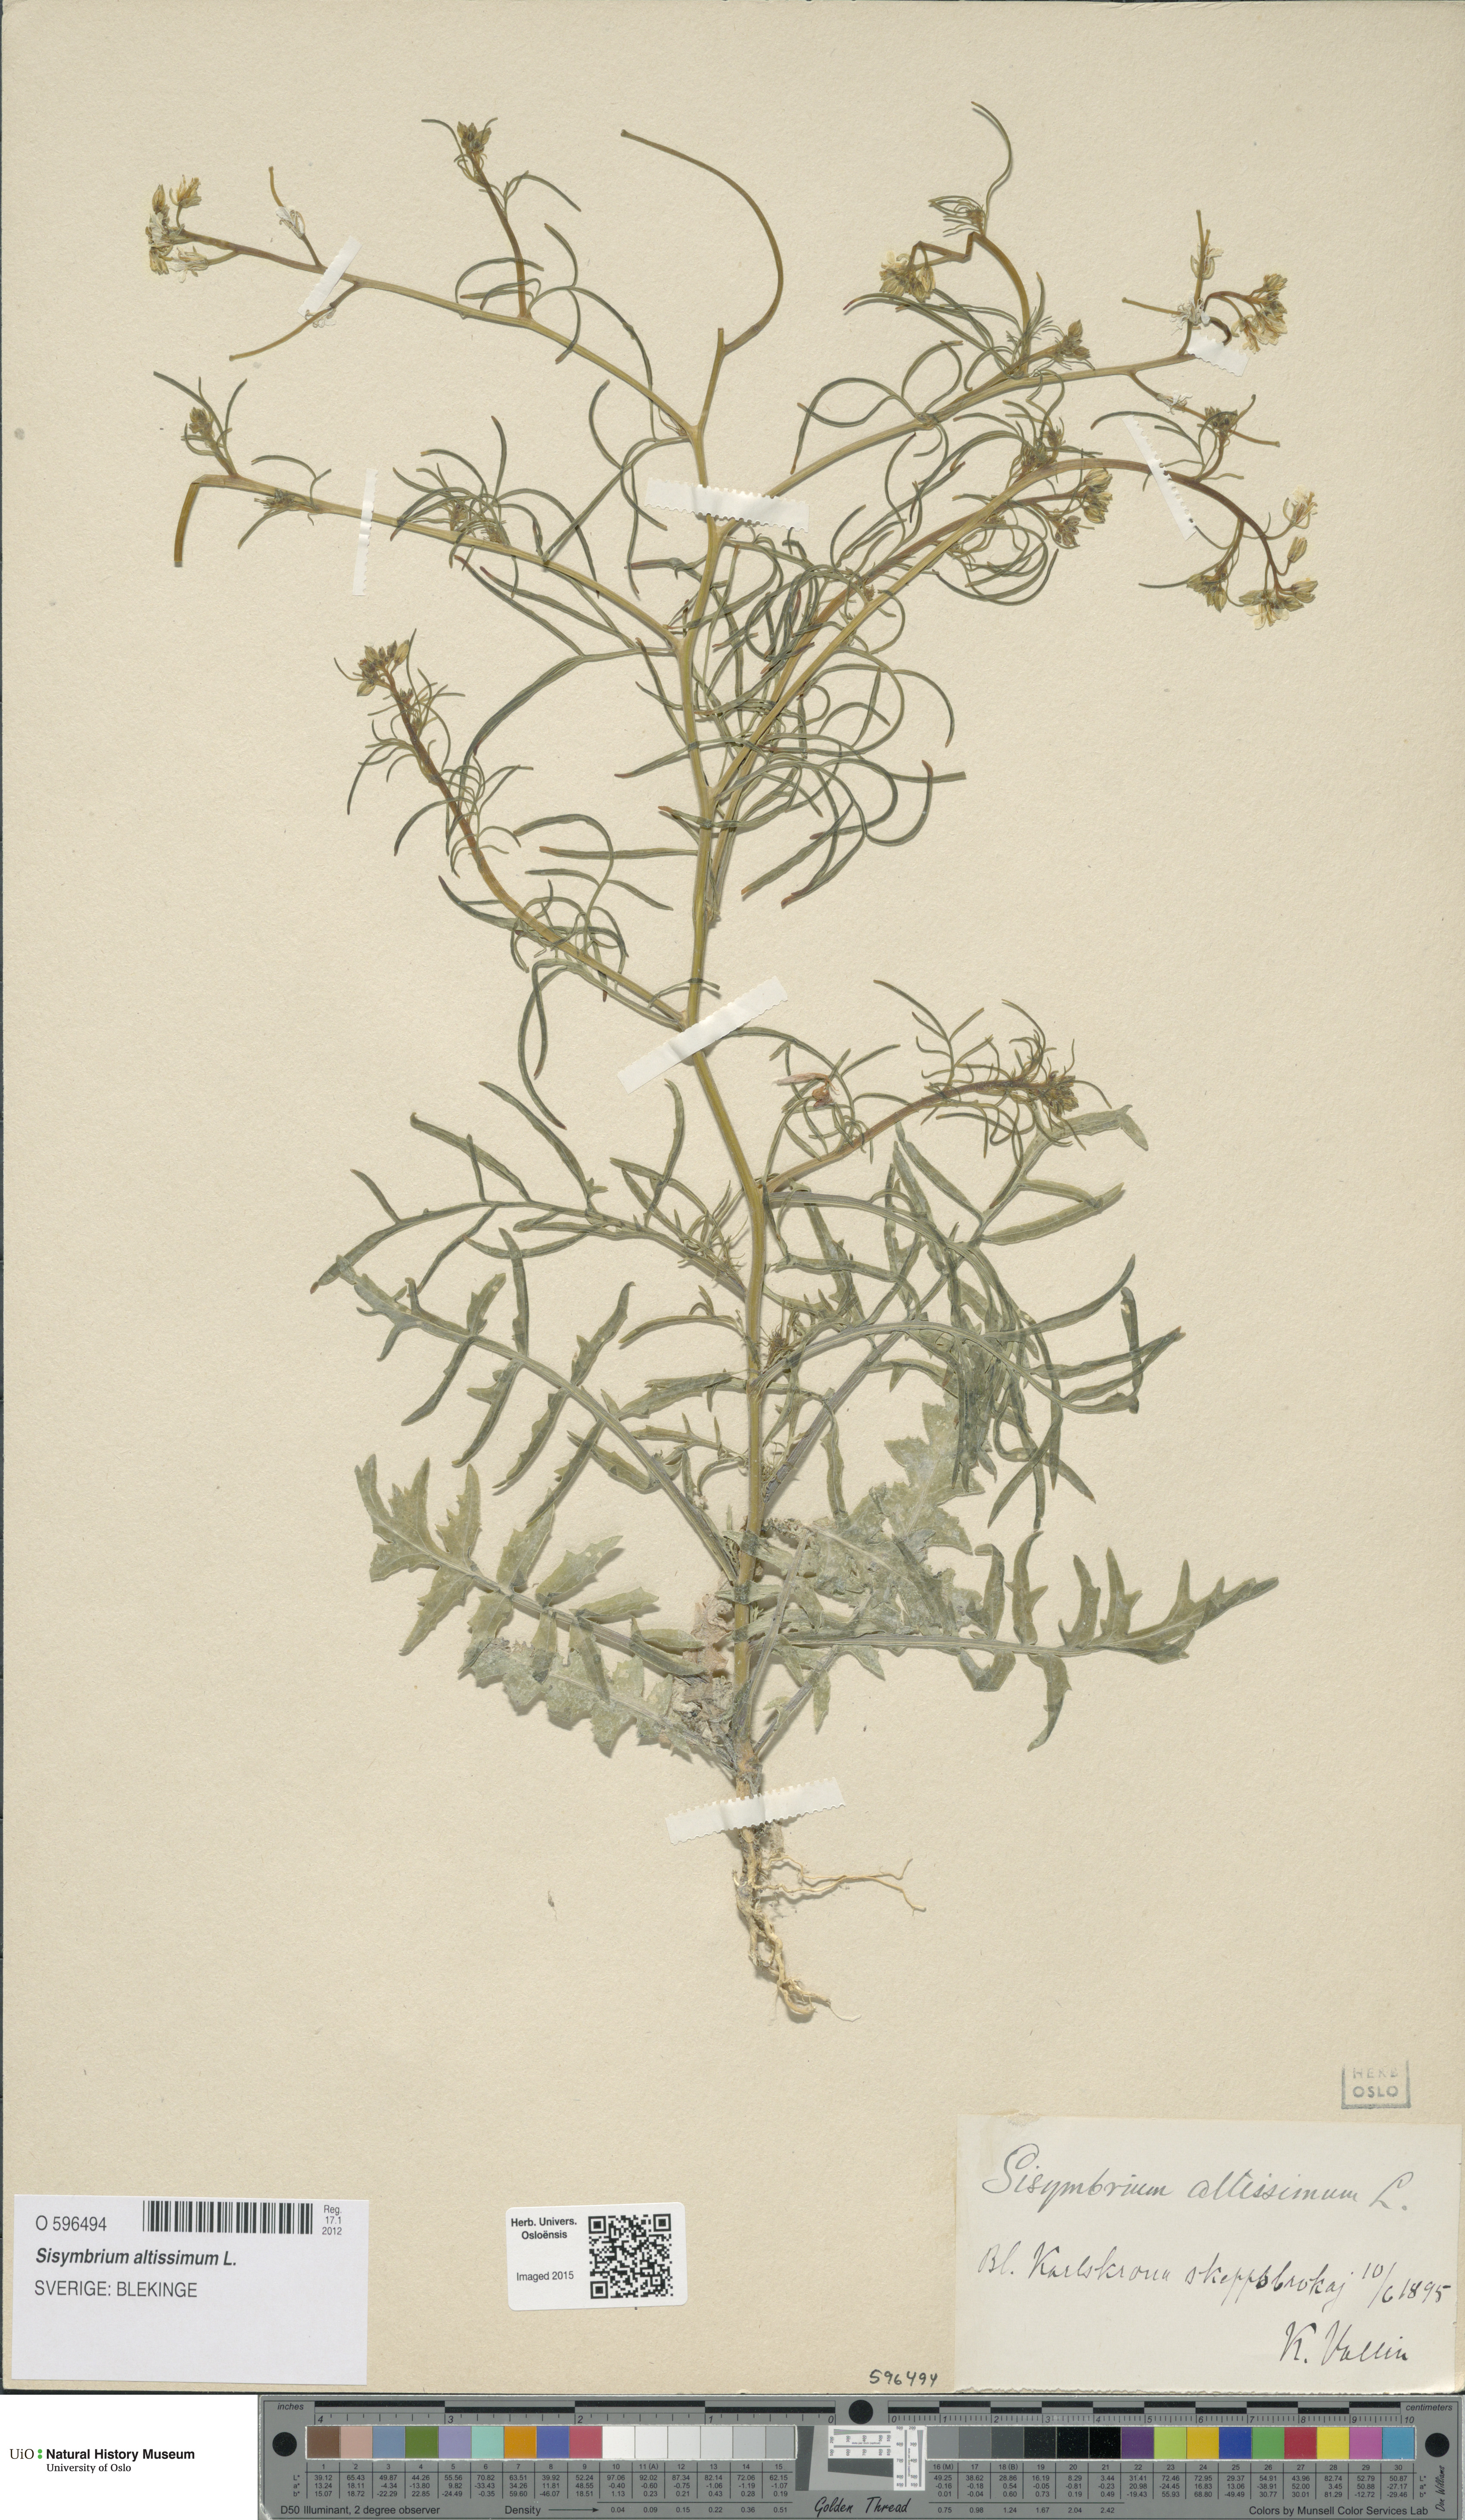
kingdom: Plantae
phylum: Tracheophyta
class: Magnoliopsida
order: Brassicales
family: Brassicaceae
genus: Sisymbrium
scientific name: Sisymbrium altissimum
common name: Tall rocket
